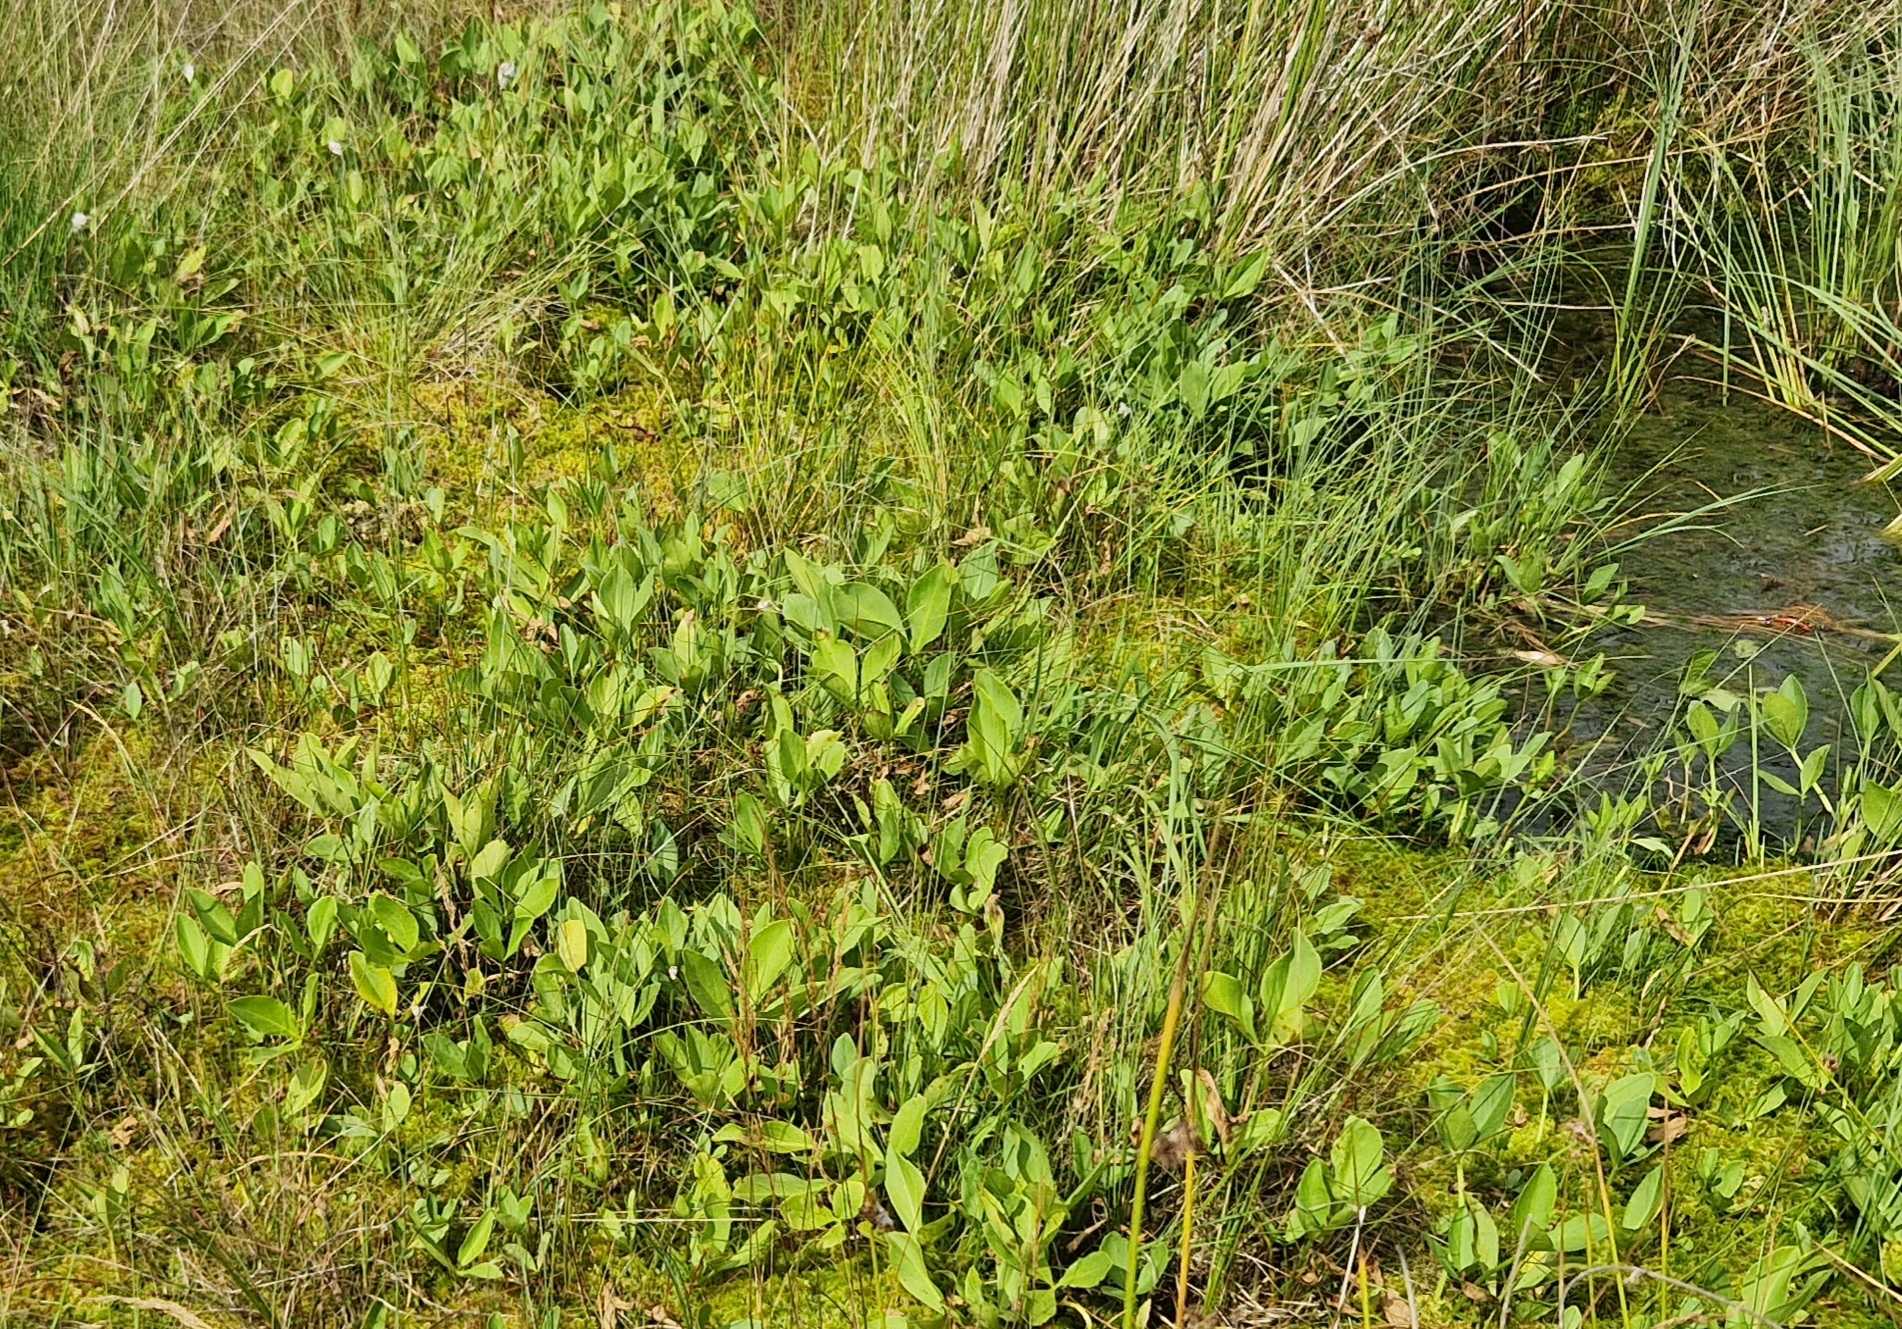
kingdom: Plantae
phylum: Tracheophyta
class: Magnoliopsida
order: Asterales
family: Menyanthaceae
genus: Menyanthes
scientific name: Menyanthes trifoliata
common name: Bukkeblad
